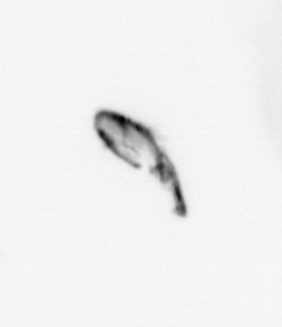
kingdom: Animalia
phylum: Arthropoda
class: Copepoda
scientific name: Copepoda
